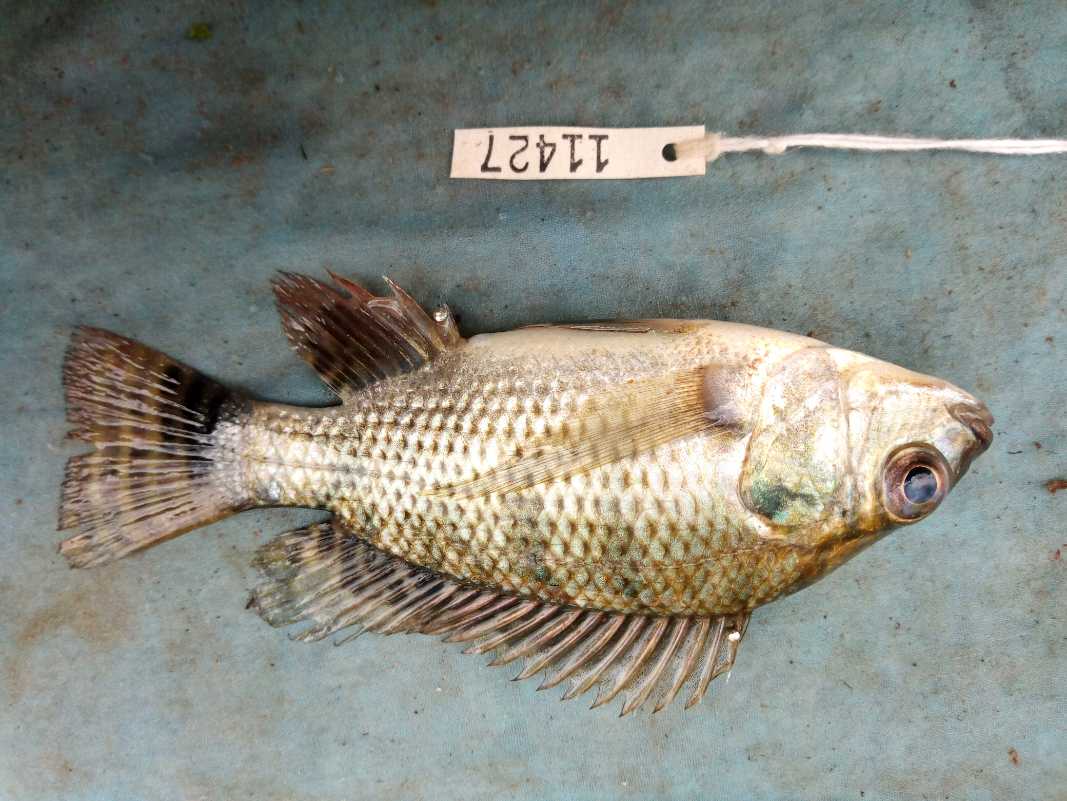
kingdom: Animalia
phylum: Chordata
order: Perciformes
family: Cichlidae
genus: Oreochromis
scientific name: Oreochromis niloticus
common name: Nile tilapia
